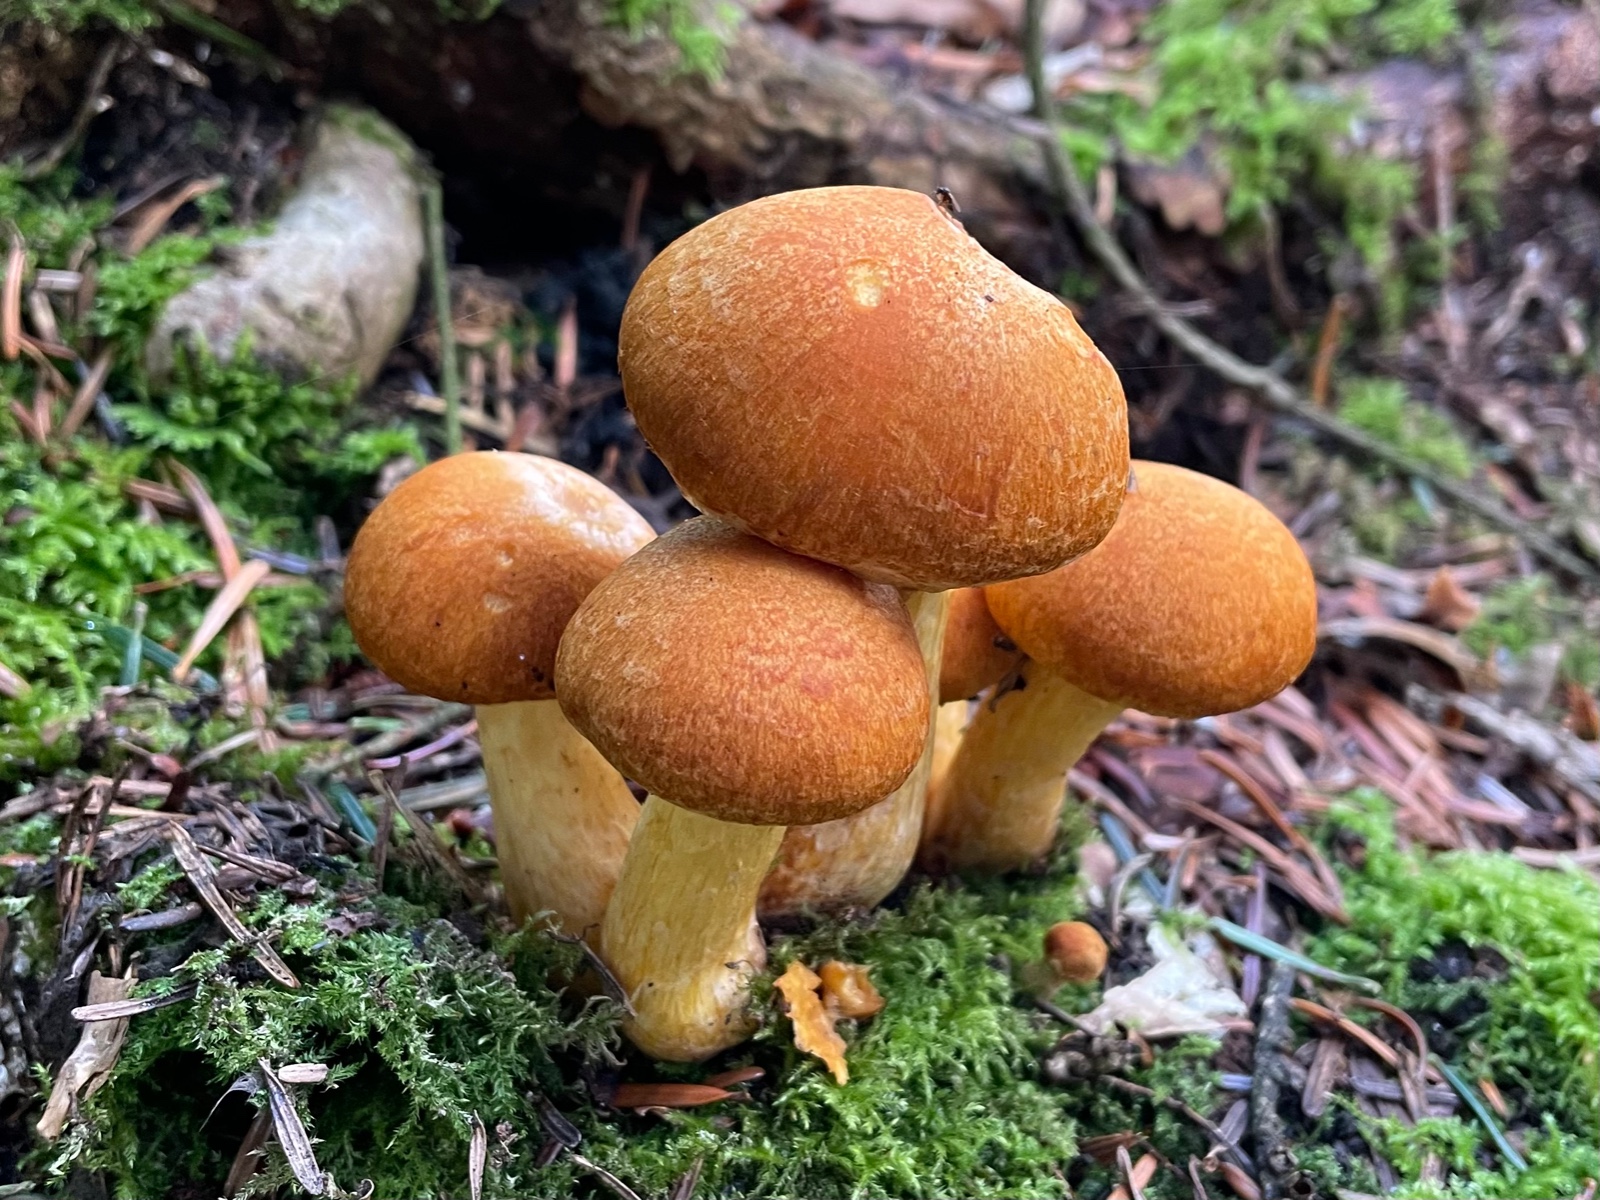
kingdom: Fungi
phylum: Basidiomycota
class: Agaricomycetes
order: Agaricales
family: Hymenogastraceae
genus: Gymnopilus
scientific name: Gymnopilus spectabilis
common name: fibret flammehat
